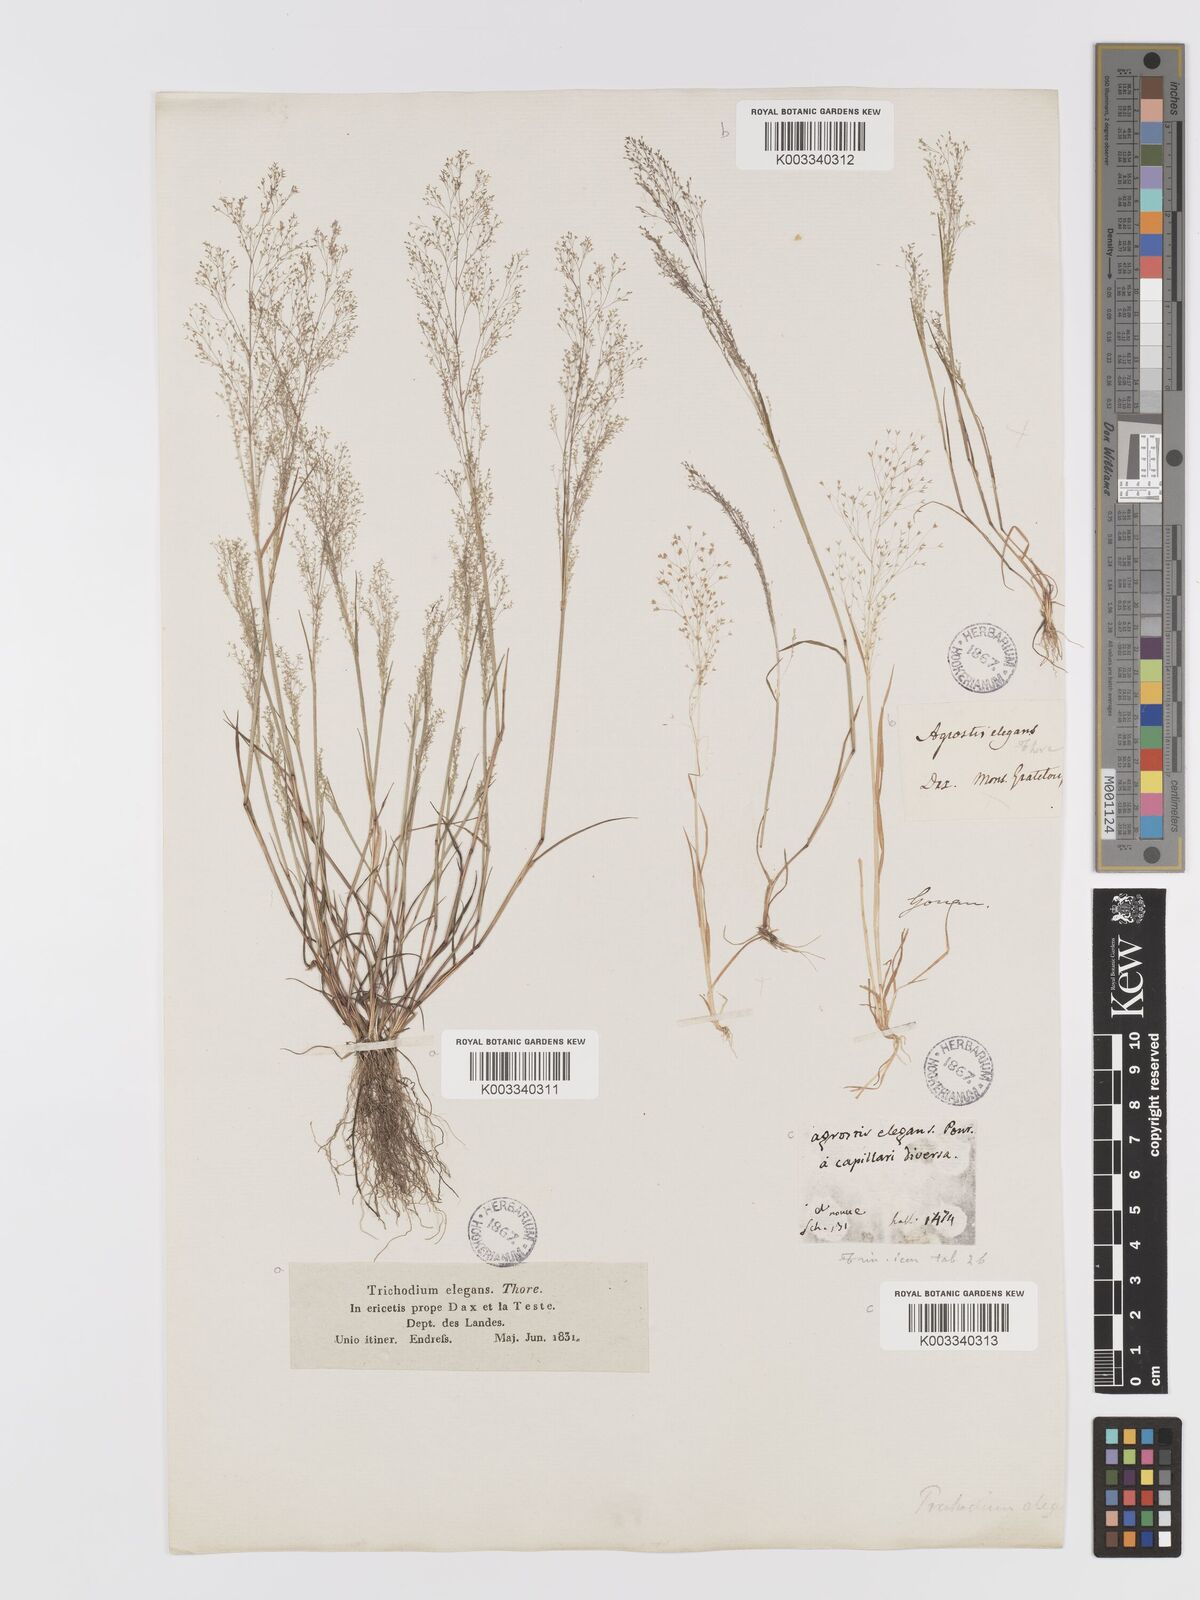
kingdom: Plantae
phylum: Tracheophyta
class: Liliopsida
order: Poales
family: Poaceae
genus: Agrostis
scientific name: Agrostis tenerrima
